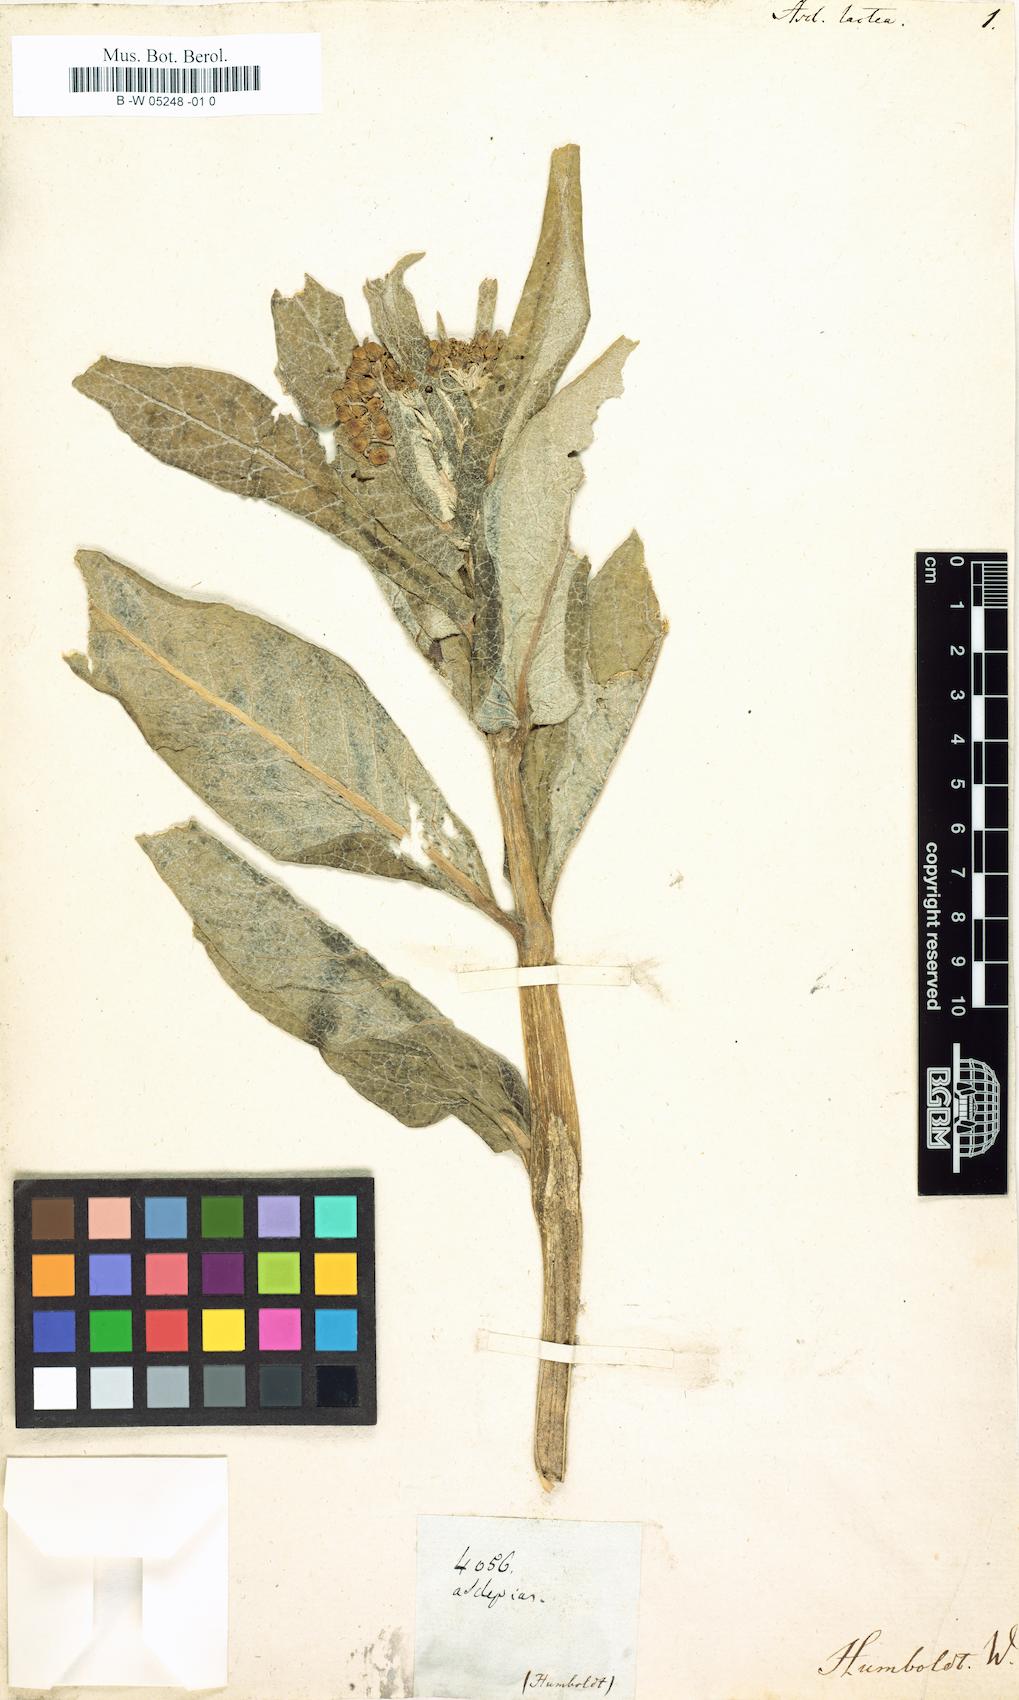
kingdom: Plantae
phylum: Tracheophyta
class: Magnoliopsida
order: Gentianales
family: Apocynaceae
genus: Asclepias
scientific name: Asclepias
